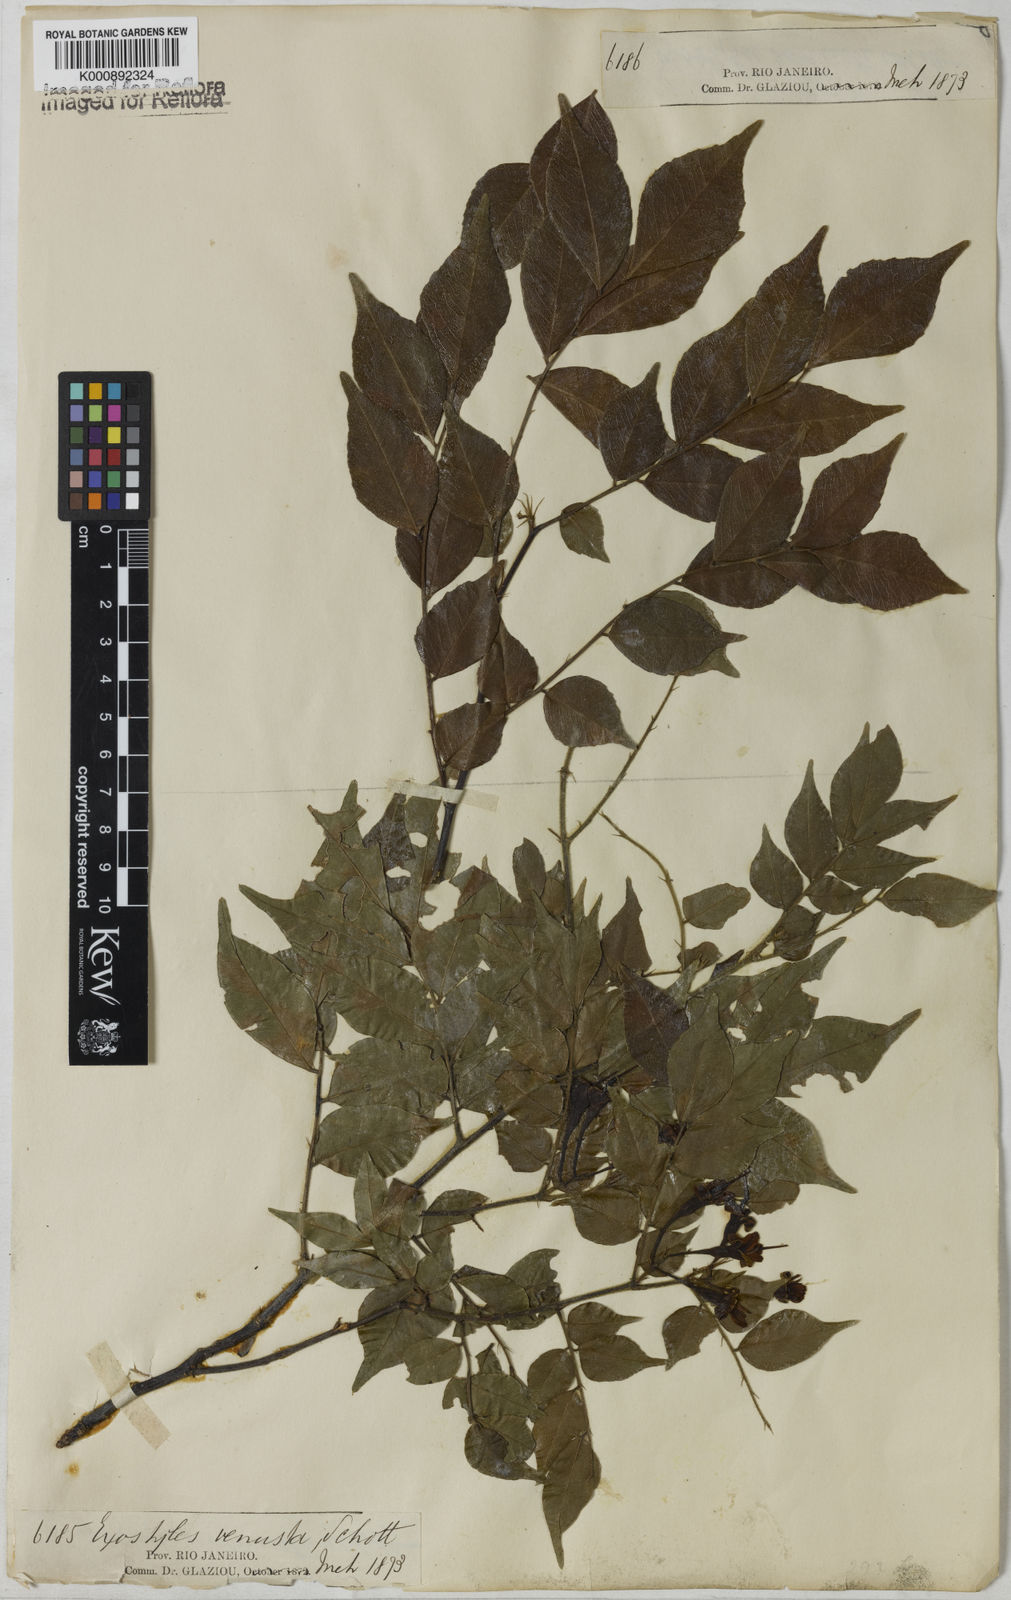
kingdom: Plantae
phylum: Tracheophyta
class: Magnoliopsida
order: Fabales
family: Fabaceae
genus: Exostyles
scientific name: Exostyles venusta
